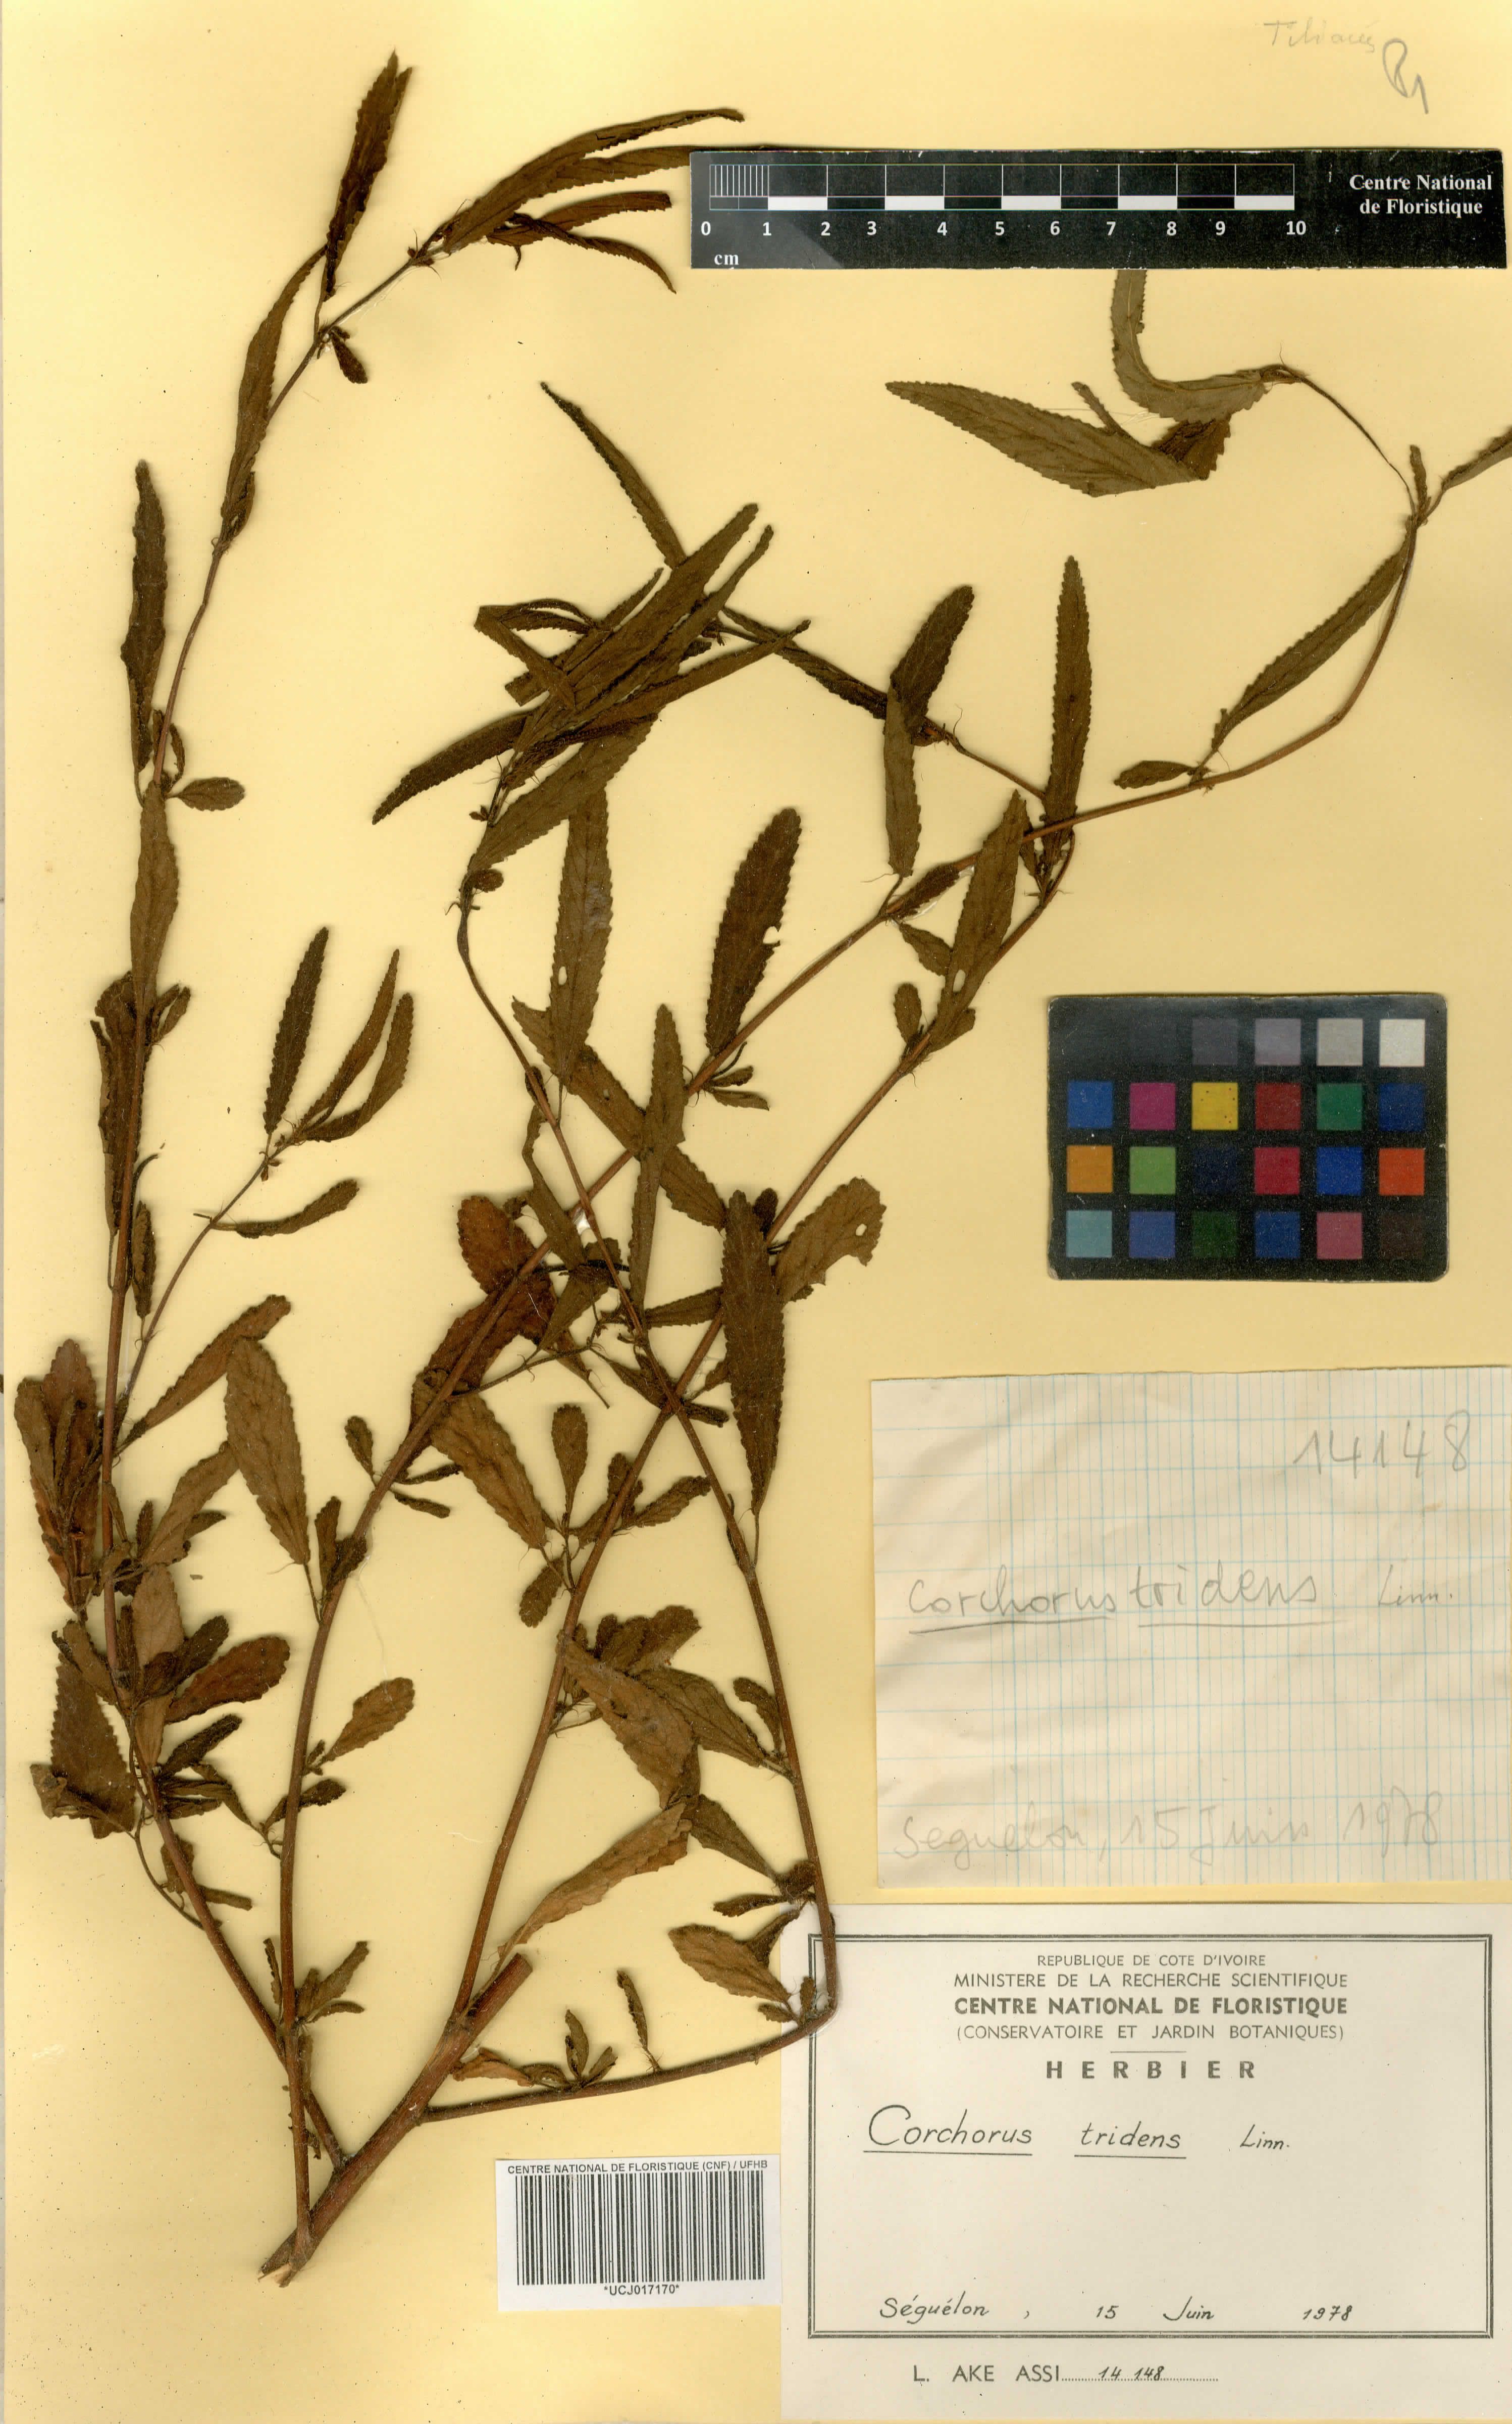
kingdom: Plantae
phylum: Tracheophyta
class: Magnoliopsida
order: Malvales
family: Malvaceae
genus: Corchorus
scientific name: Corchorus tridens
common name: Wild jute
